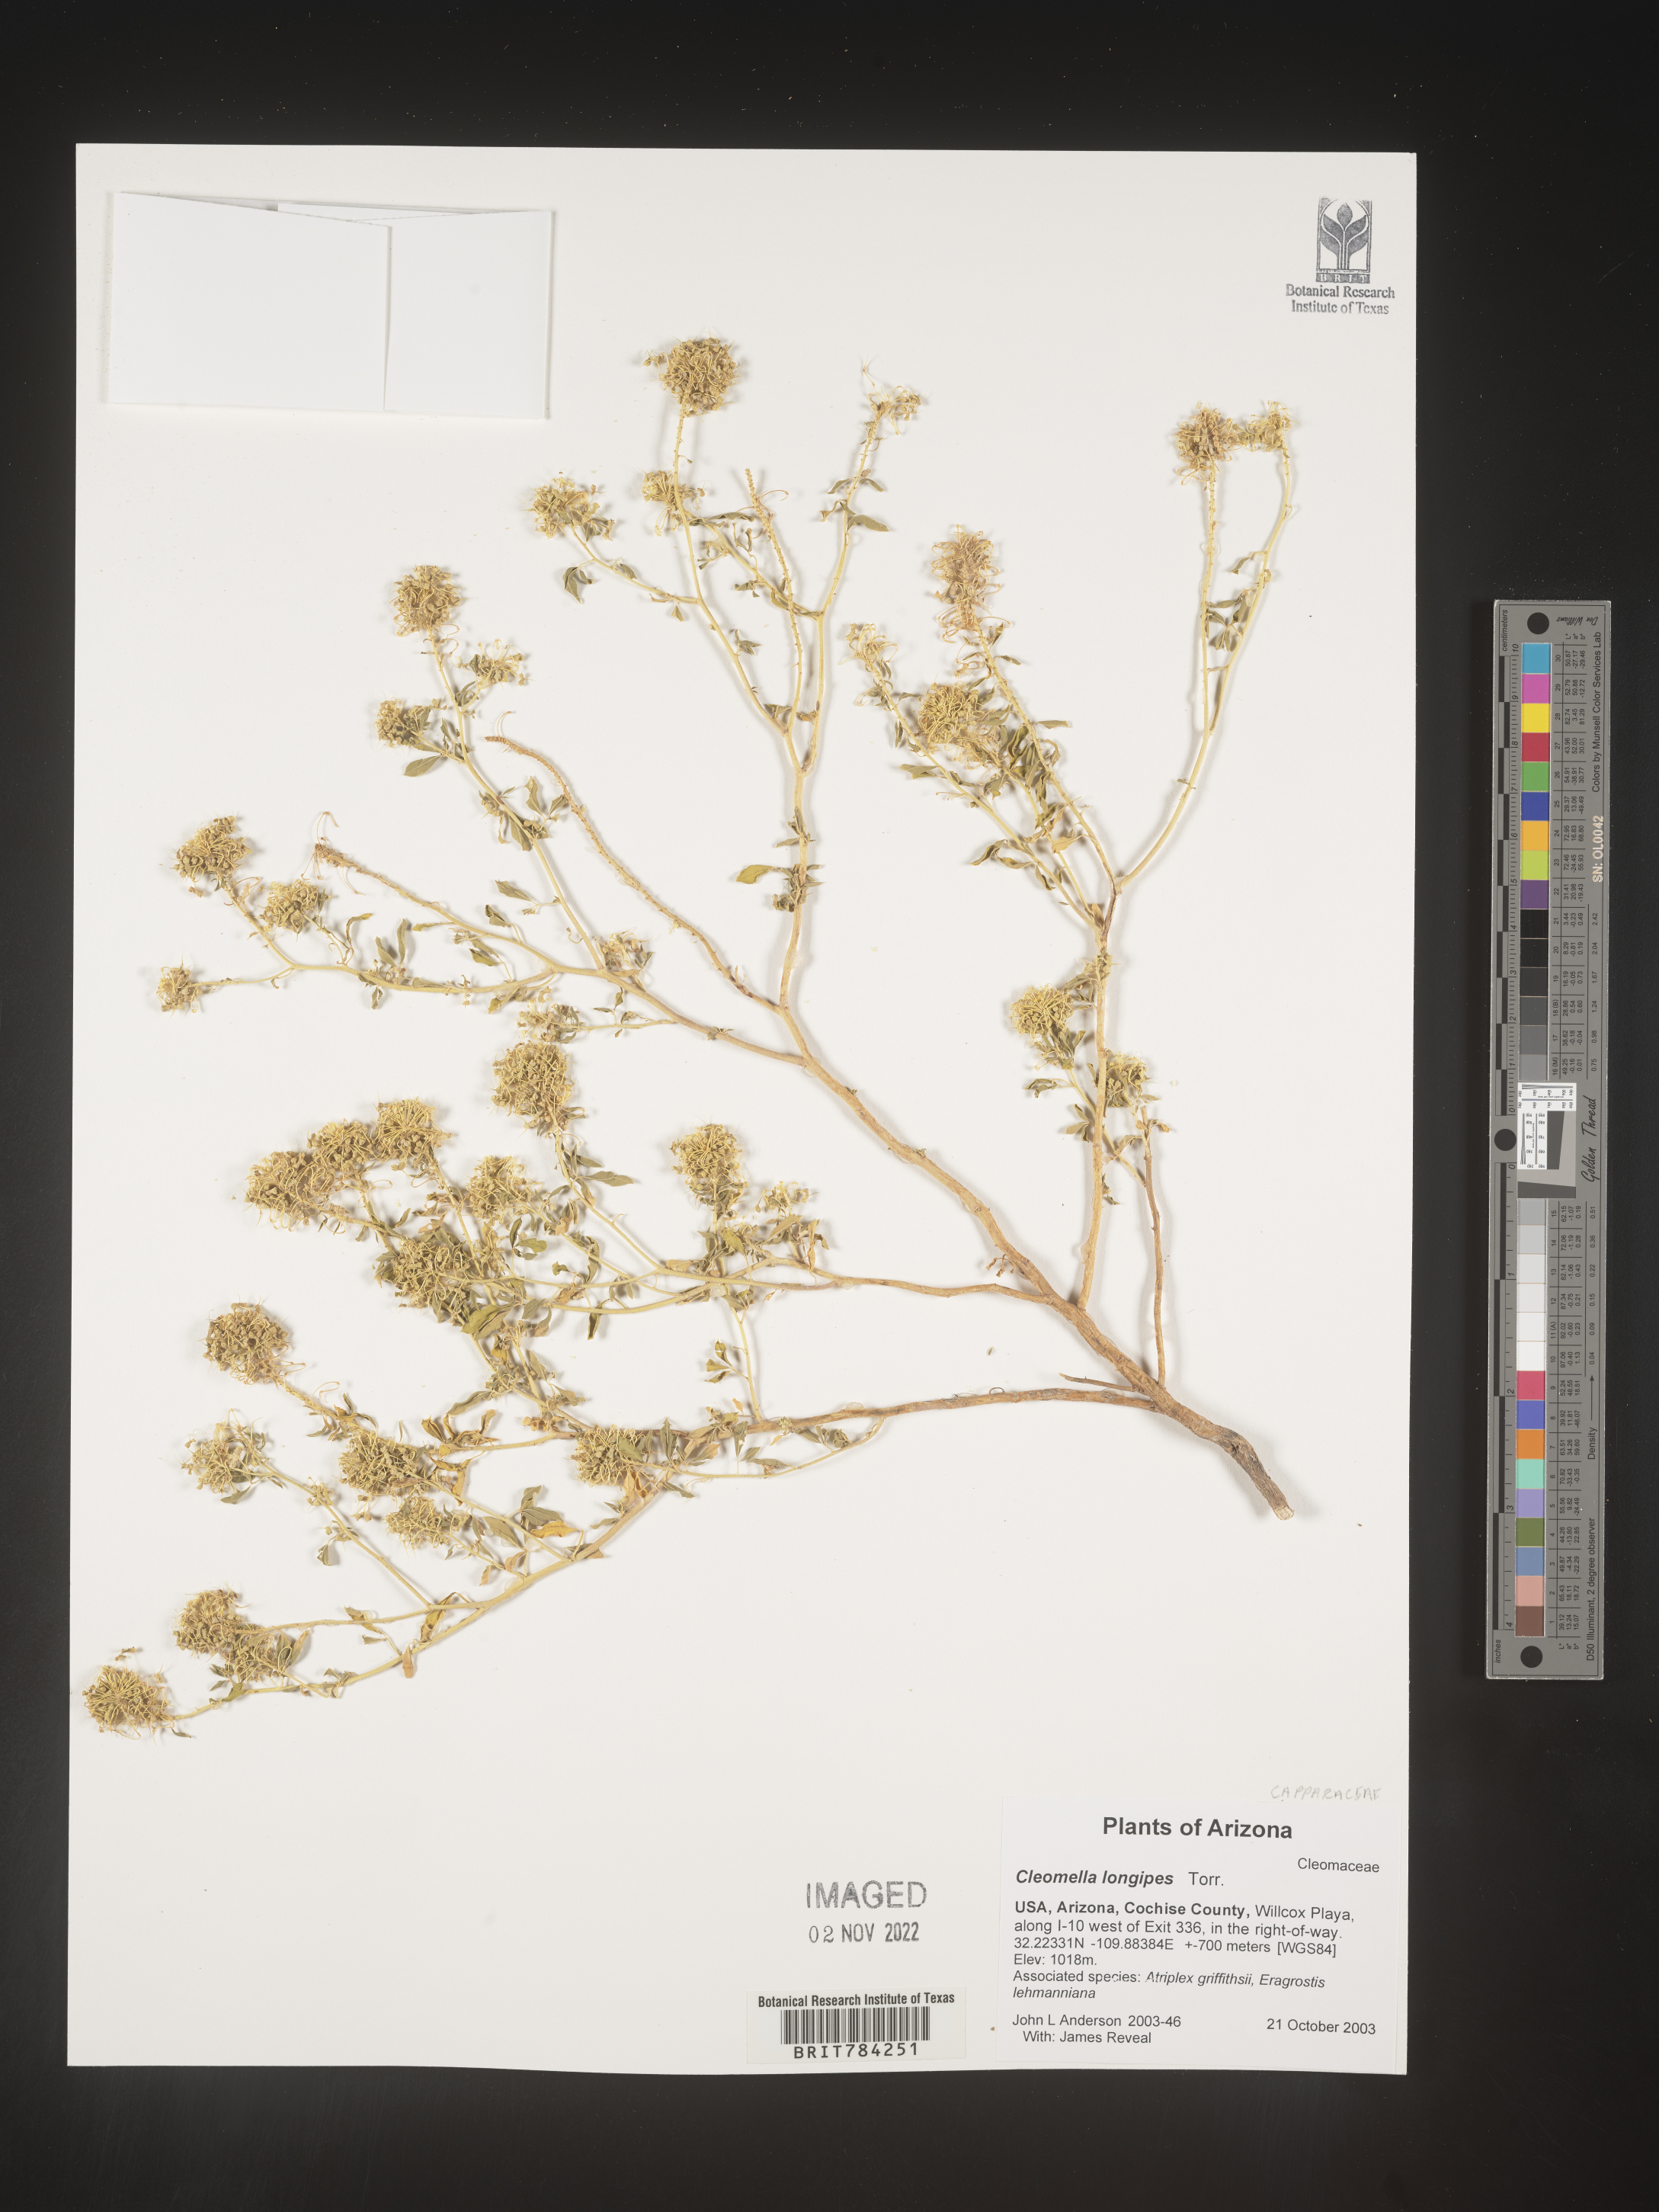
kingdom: Plantae
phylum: Tracheophyta
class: Magnoliopsida
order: Brassicales
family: Cleomaceae
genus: Cleomella
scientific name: Cleomella
